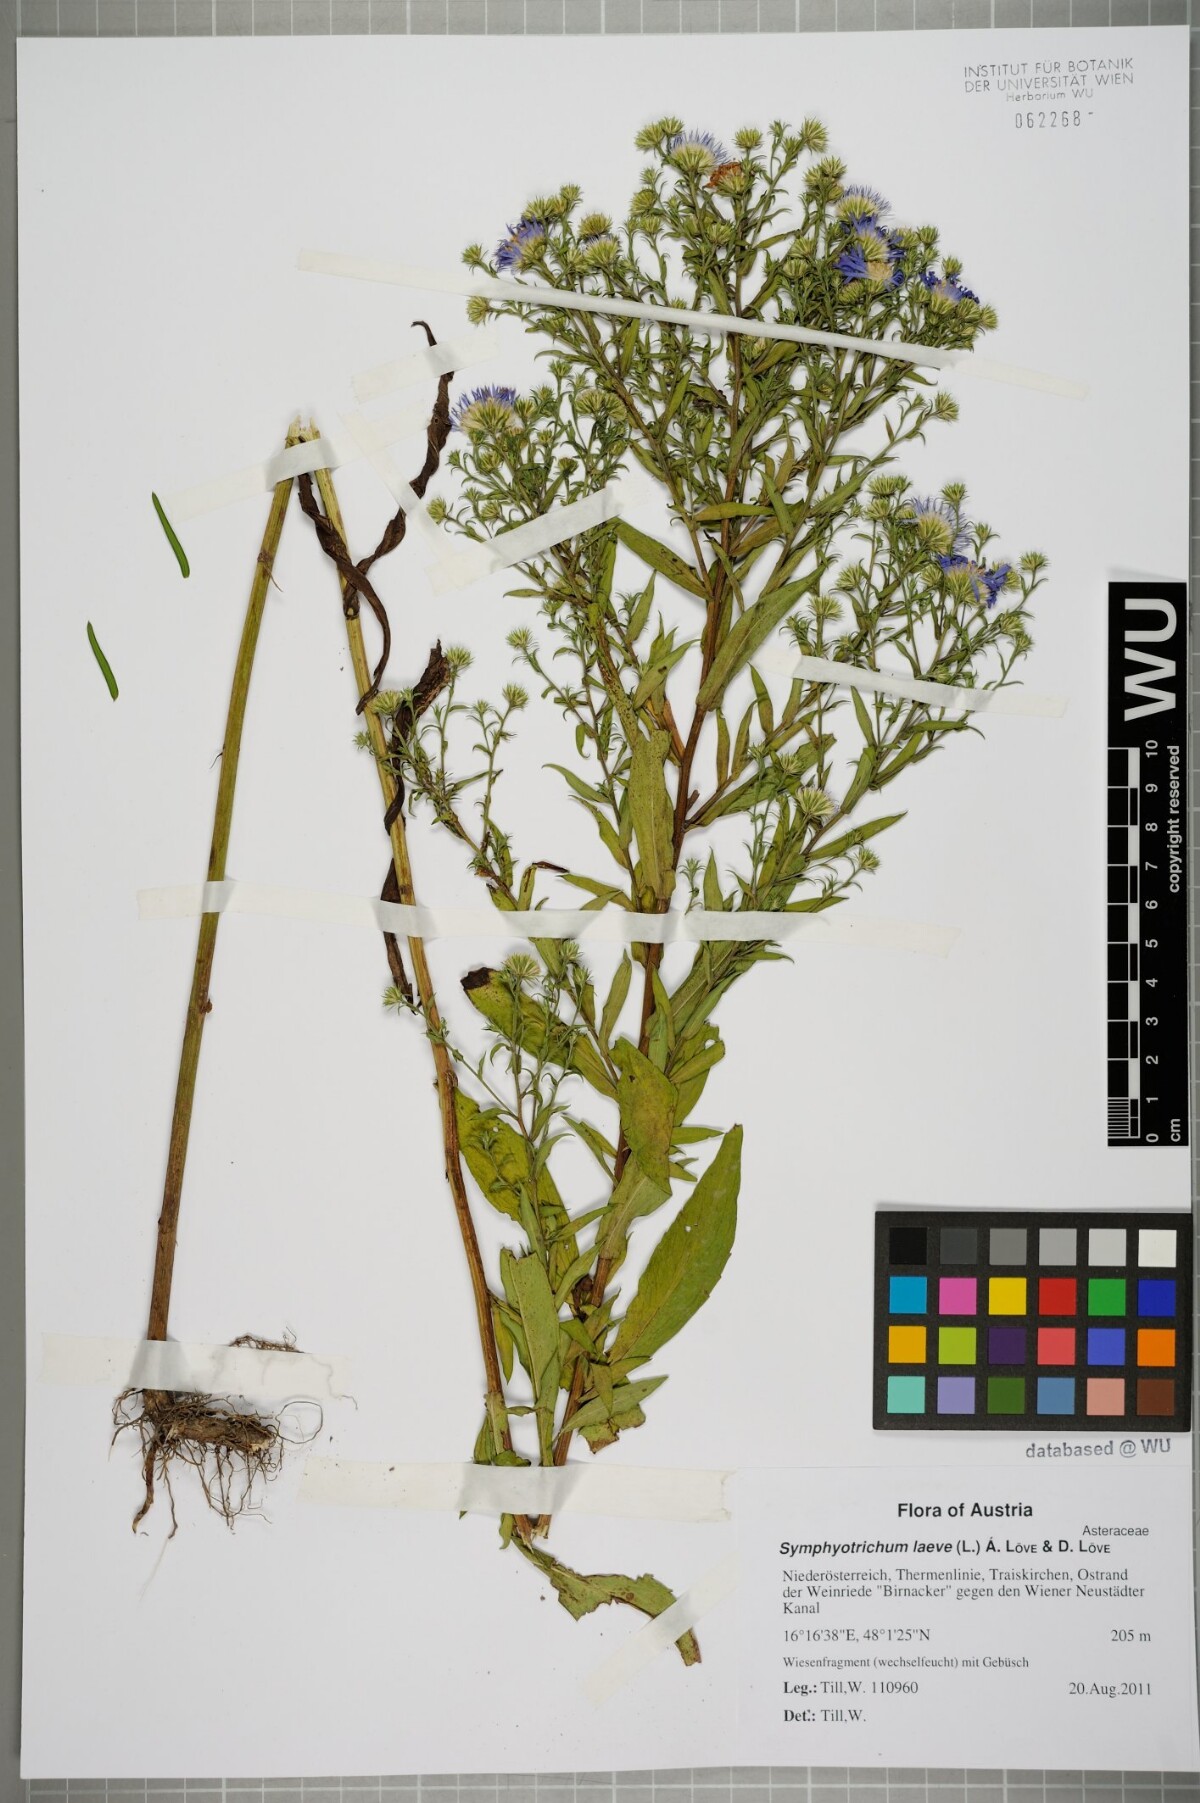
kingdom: Plantae
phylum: Tracheophyta
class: Magnoliopsida
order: Asterales
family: Asteraceae
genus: Symphyotrichum
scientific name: Symphyotrichum laeve
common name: Glaucous aster
